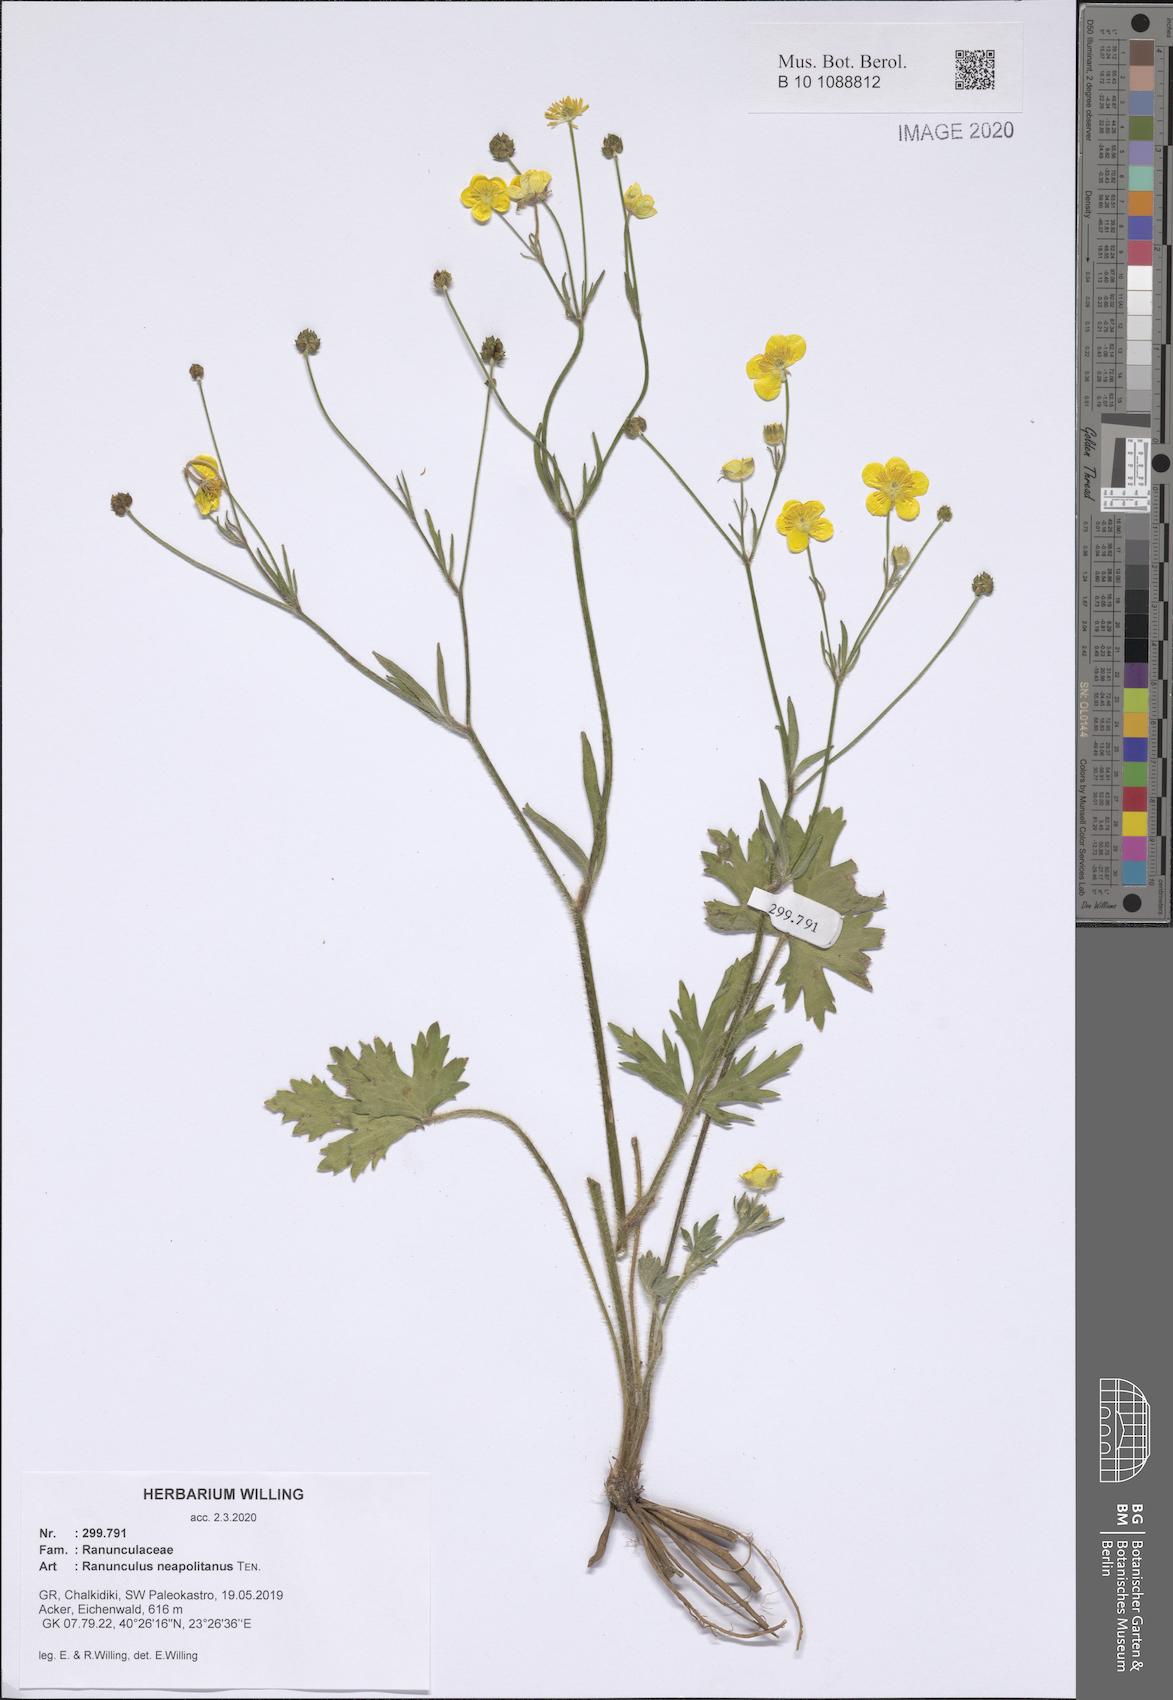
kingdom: Plantae
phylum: Tracheophyta
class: Magnoliopsida
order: Ranunculales
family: Ranunculaceae
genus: Ranunculus
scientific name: Ranunculus neapolitanus
